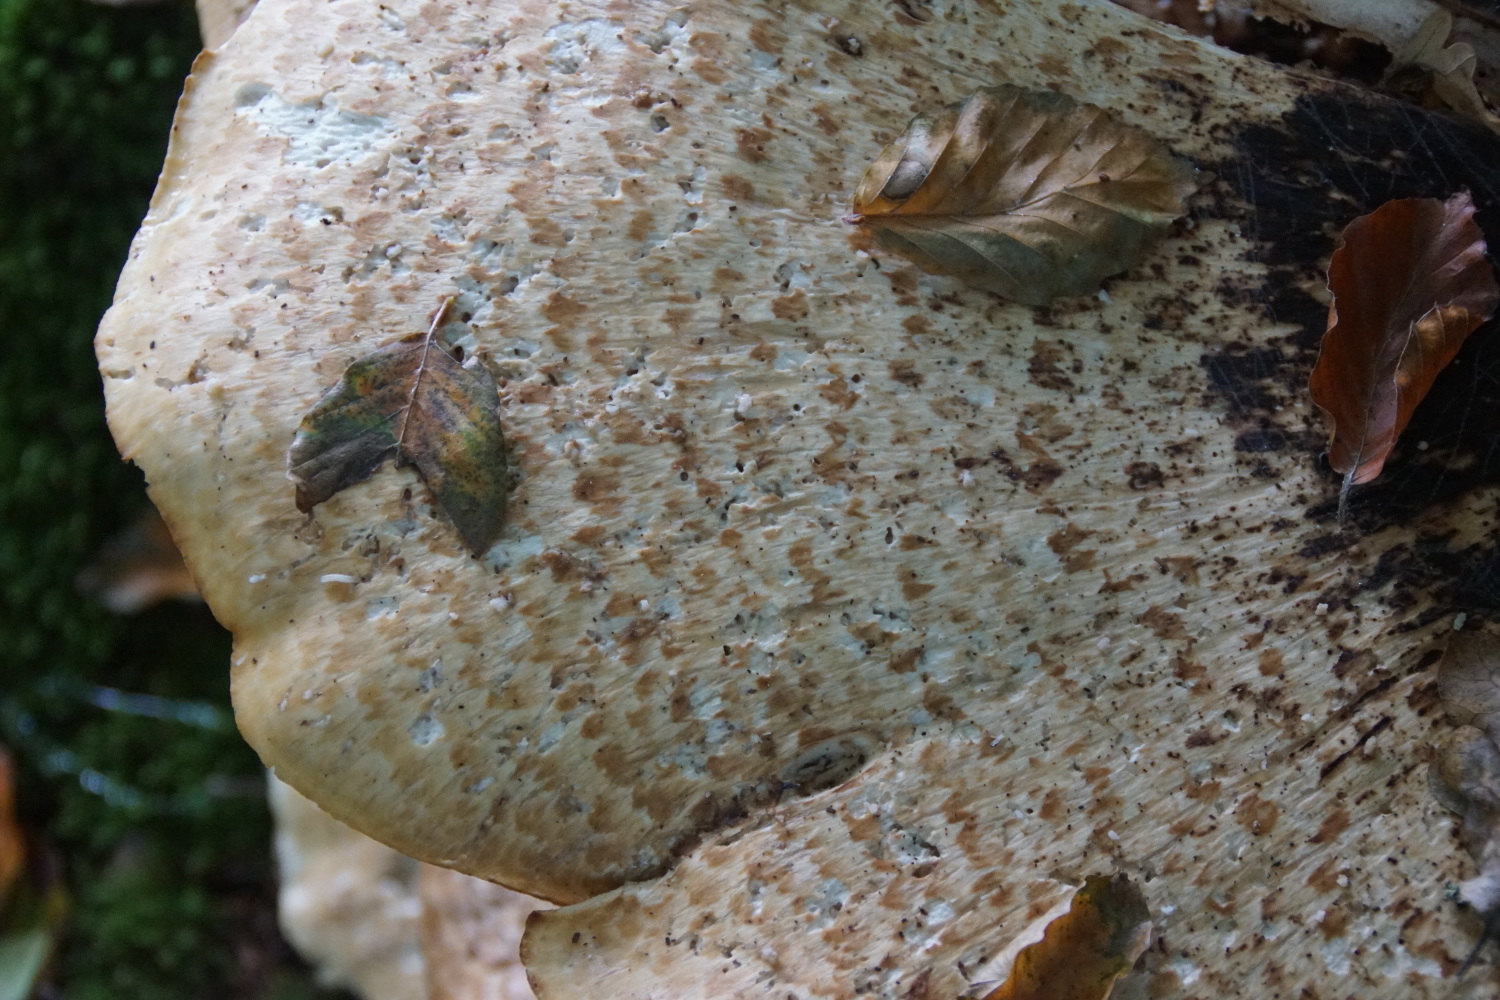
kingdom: Fungi
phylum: Basidiomycota
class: Agaricomycetes
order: Polyporales
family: Polyporaceae
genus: Cerioporus
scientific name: Cerioporus squamosus
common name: skællet stilkporesvamp
